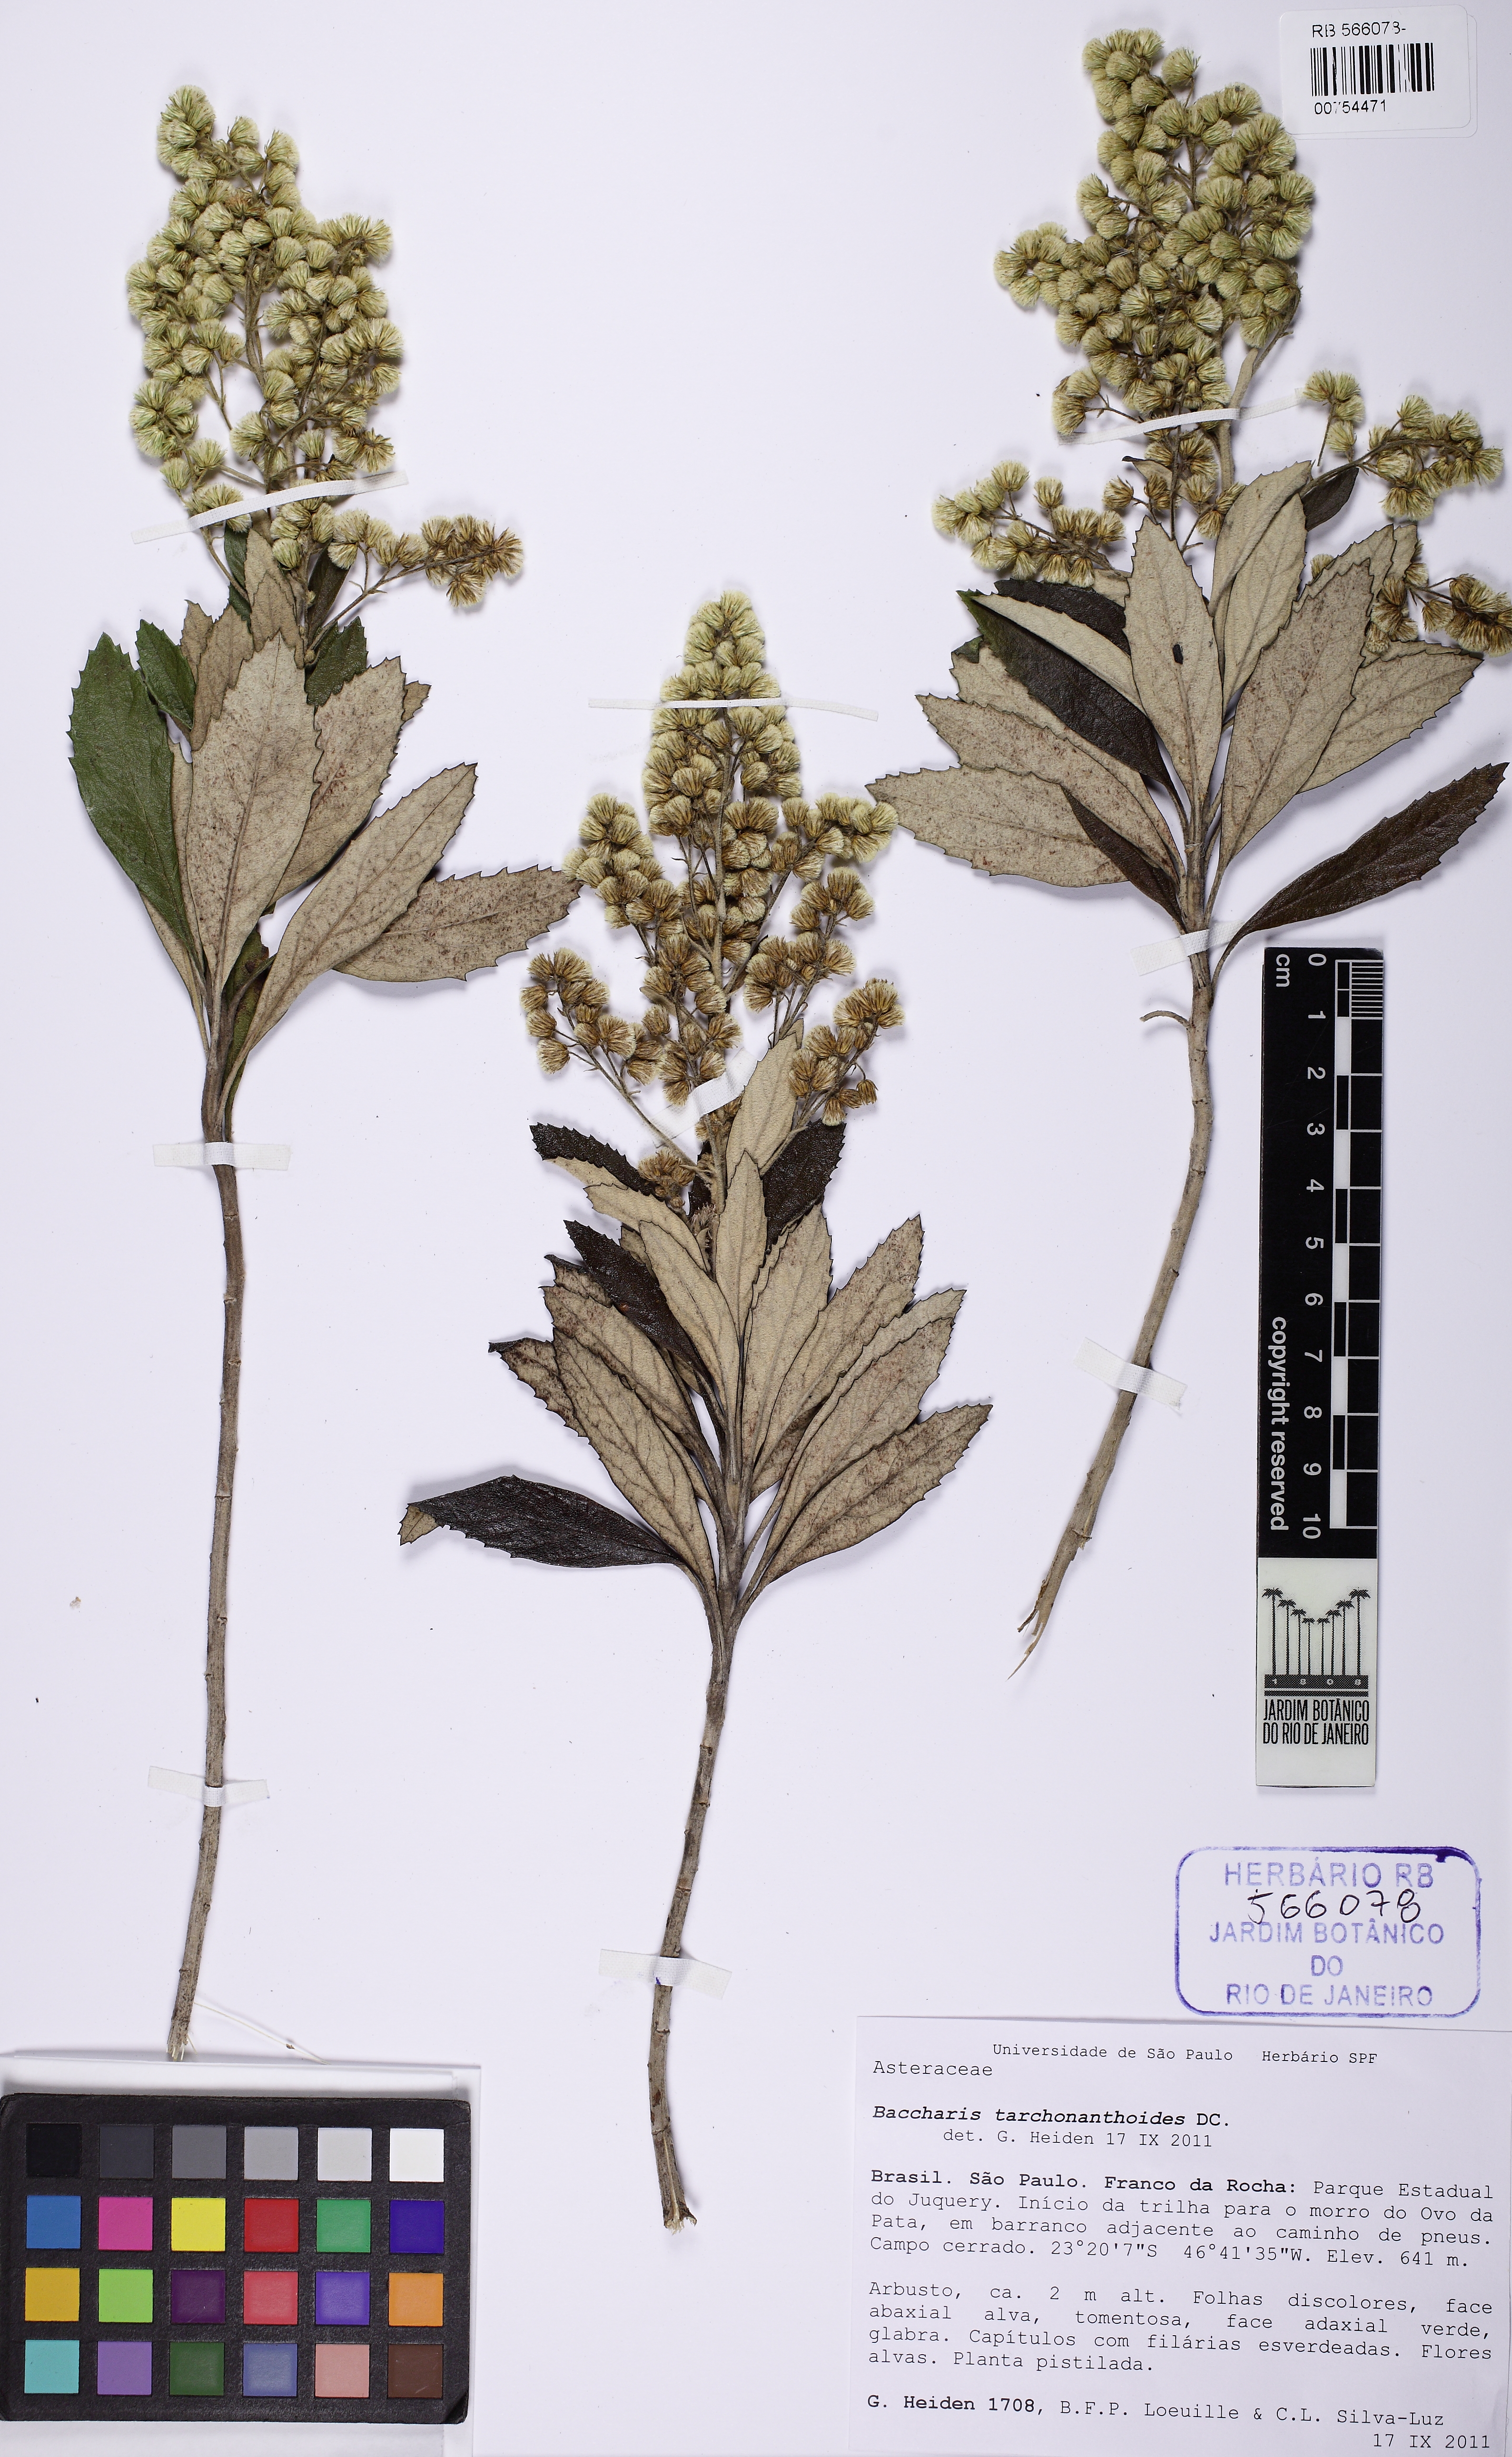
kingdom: Plantae
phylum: Tracheophyta
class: Magnoliopsida
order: Asterales
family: Asteraceae
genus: Baccharis
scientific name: Baccharis tarchonanthoides
